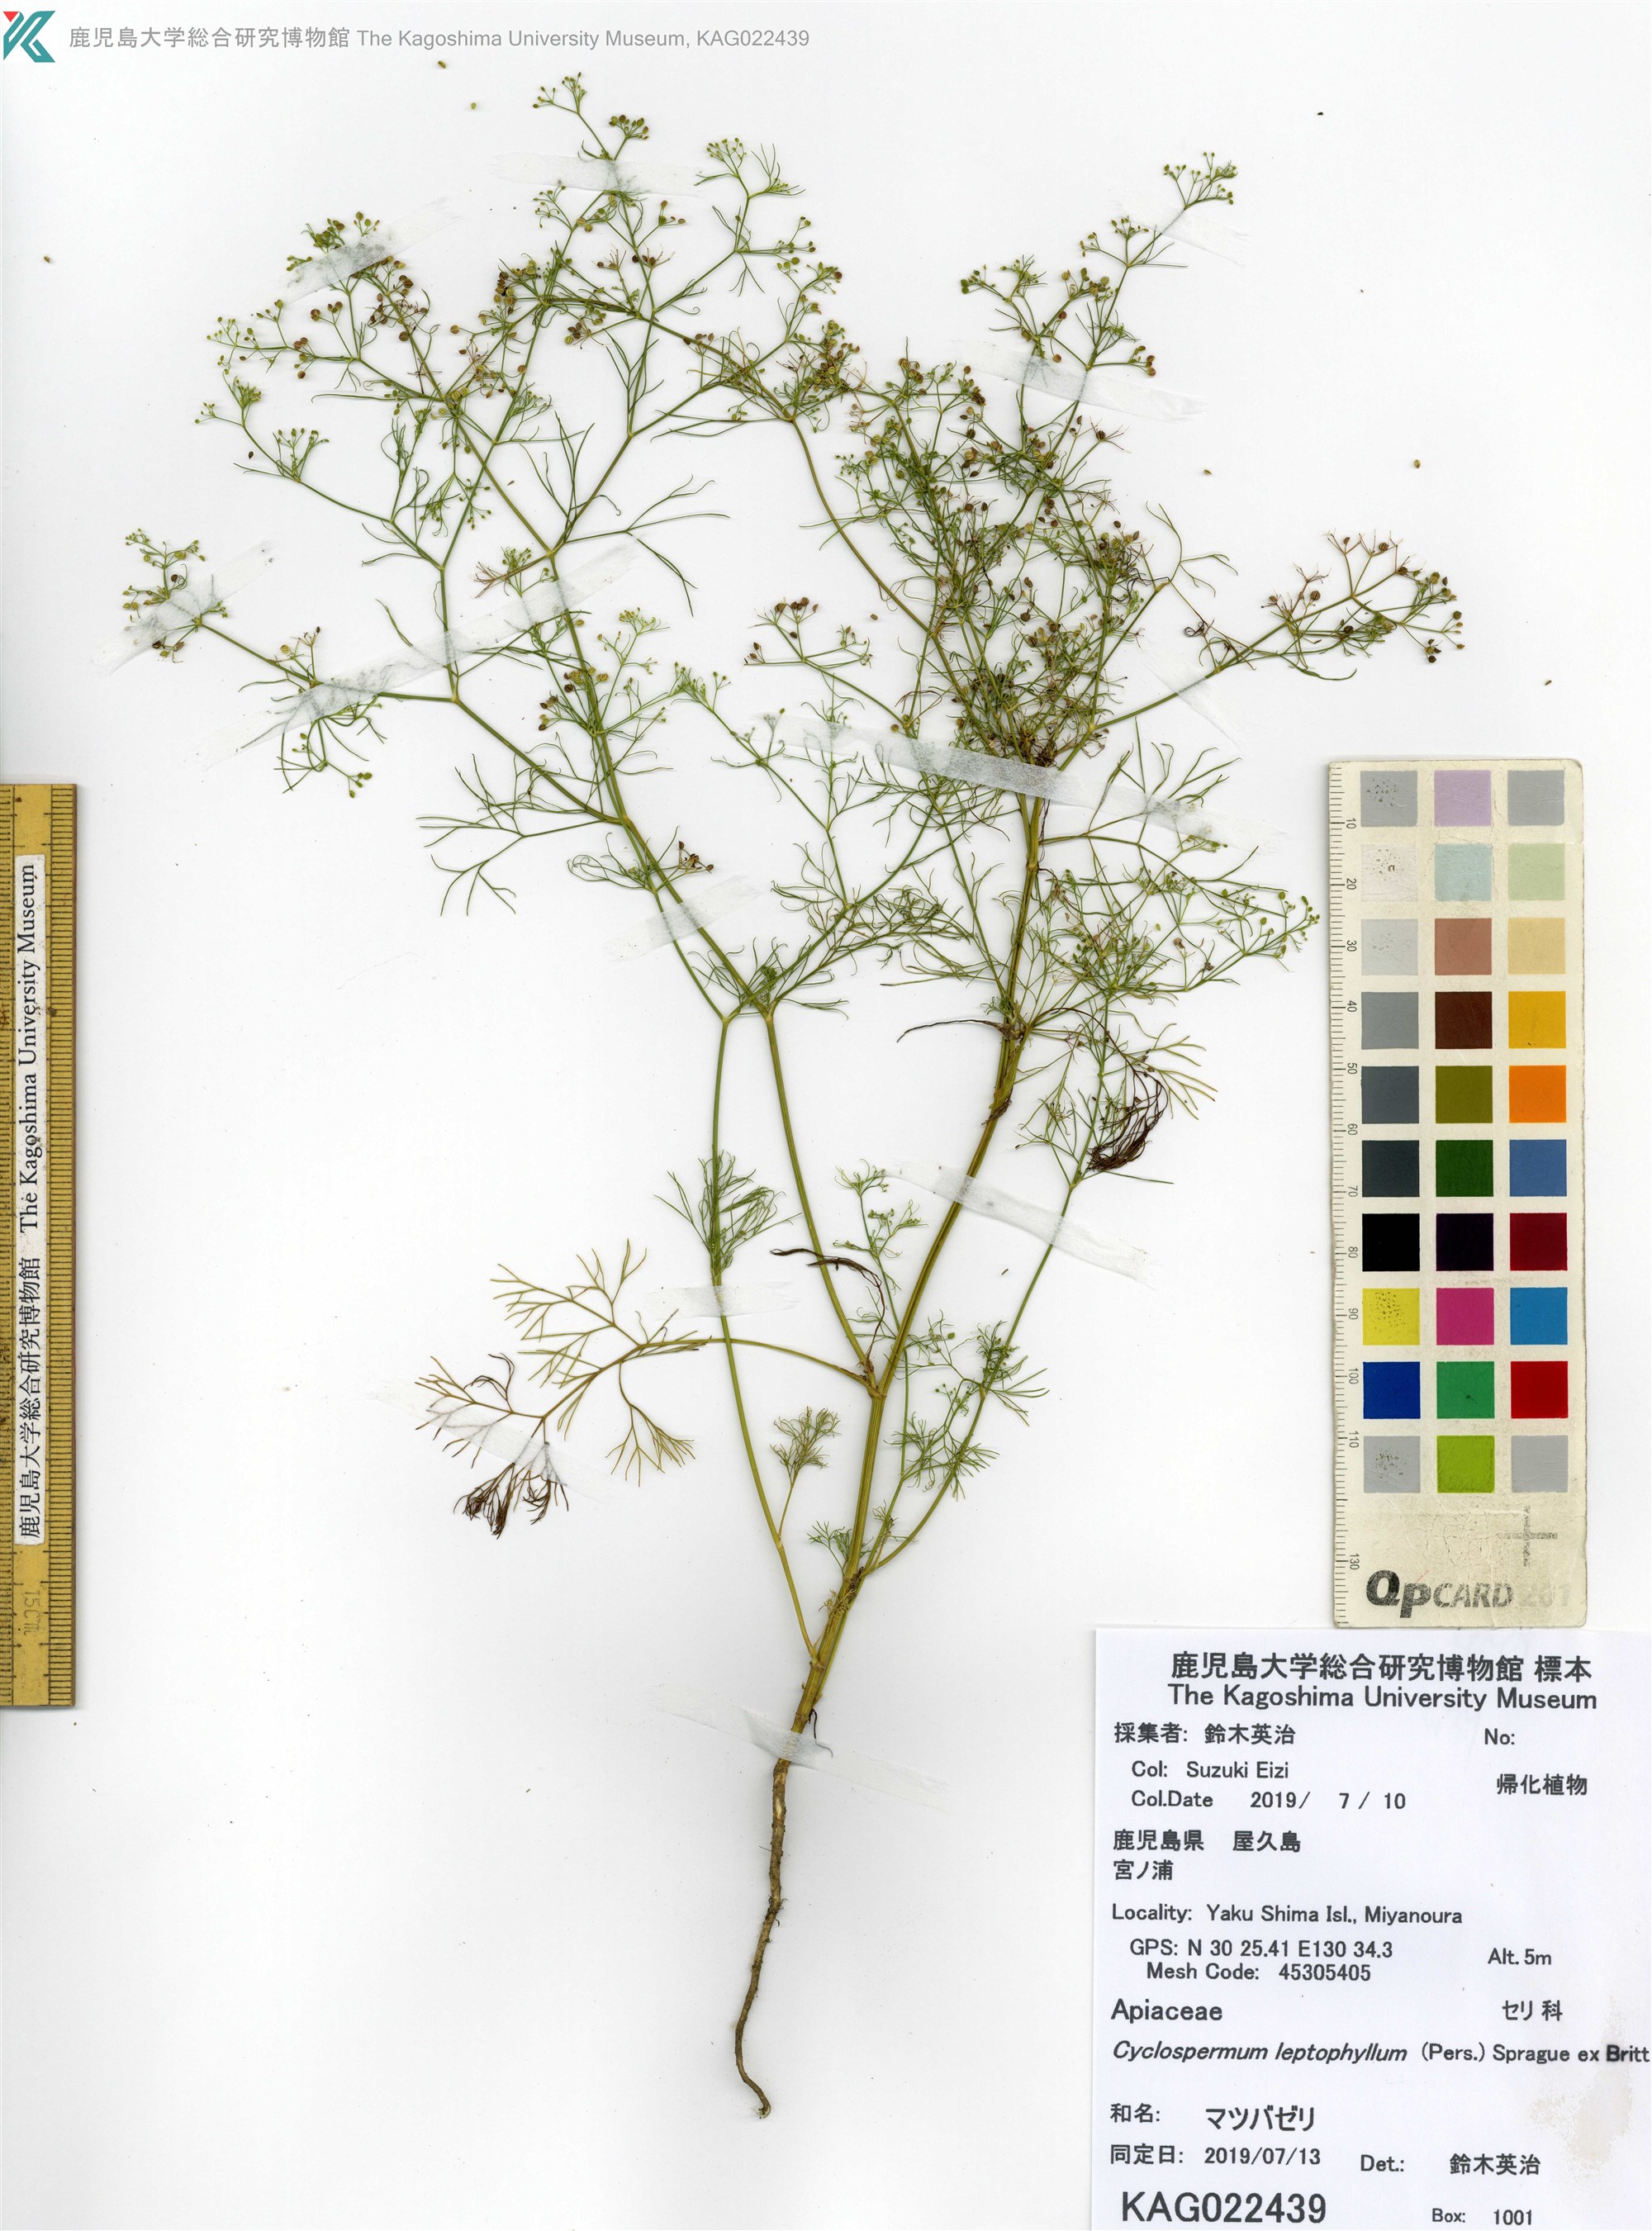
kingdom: Plantae
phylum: Tracheophyta
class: Magnoliopsida
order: Apiales
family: Apiaceae
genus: Cyclospermum
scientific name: Cyclospermum leptophyllum
